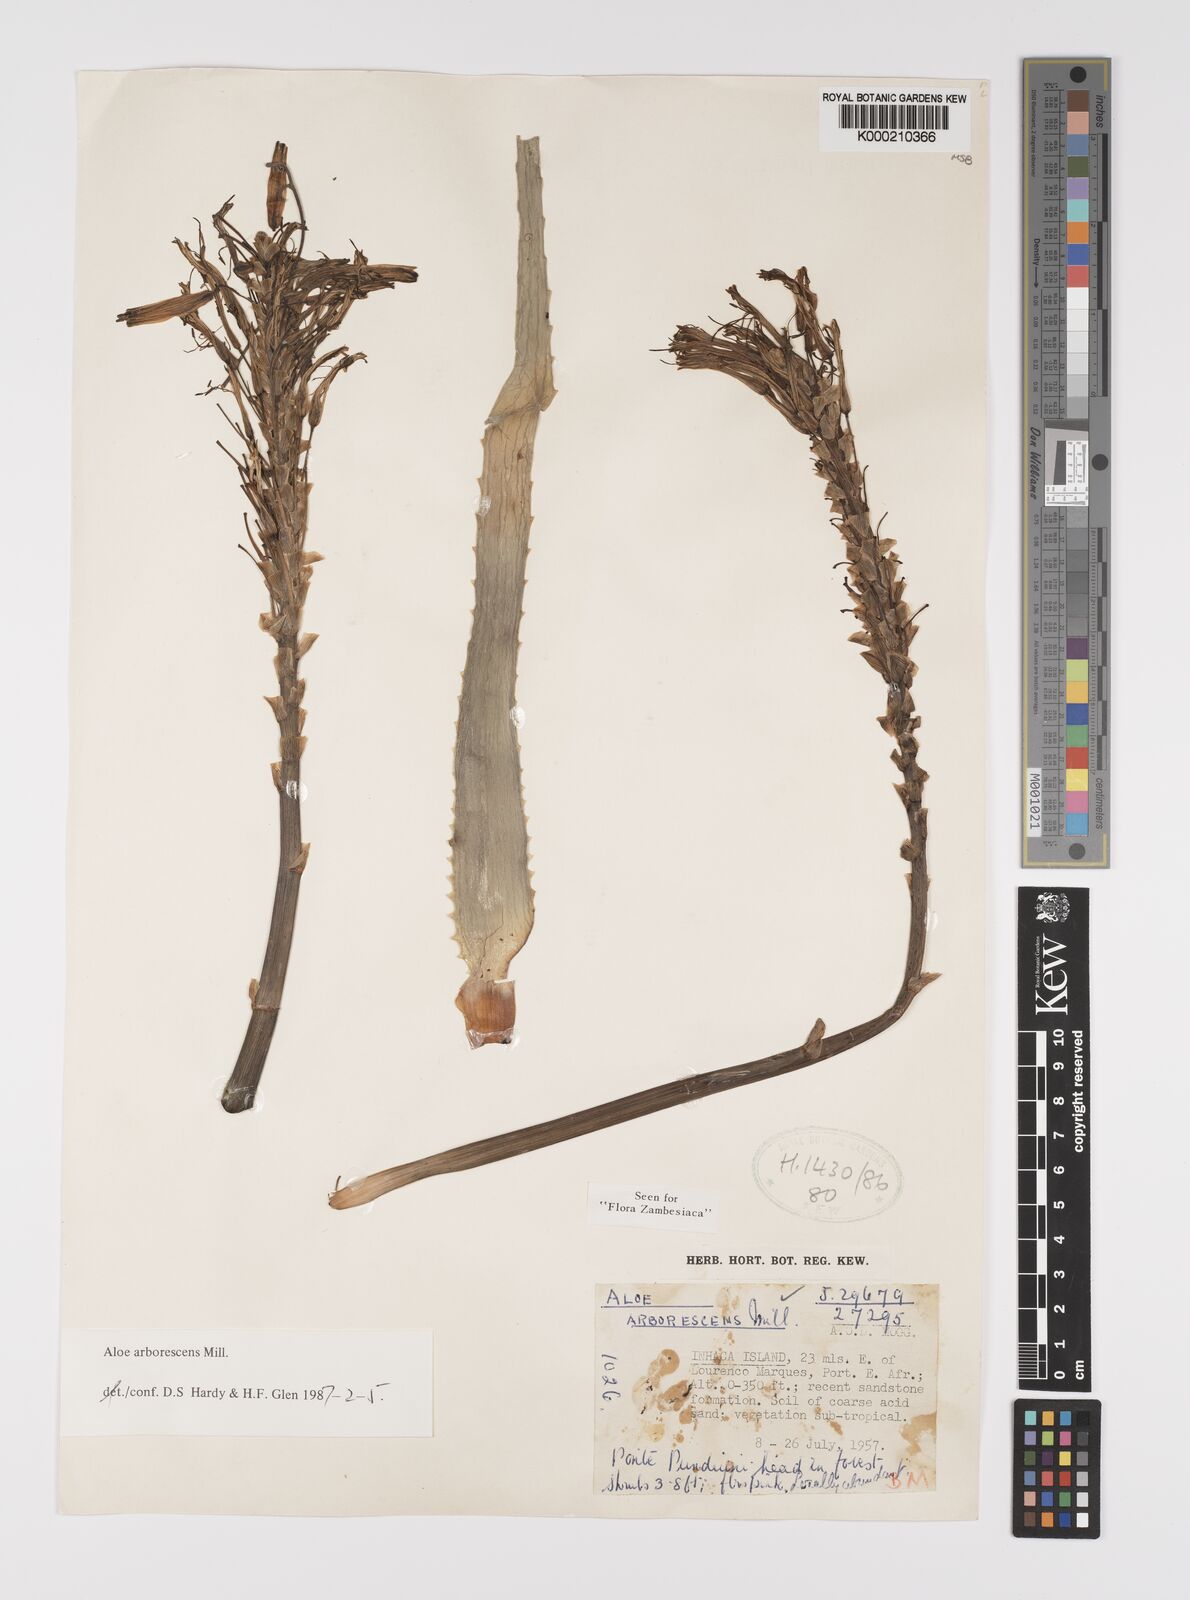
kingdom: Plantae
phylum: Tracheophyta
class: Liliopsida
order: Asparagales
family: Asphodelaceae
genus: Aloe
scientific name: Aloe arborescens
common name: Candelabra aloe
